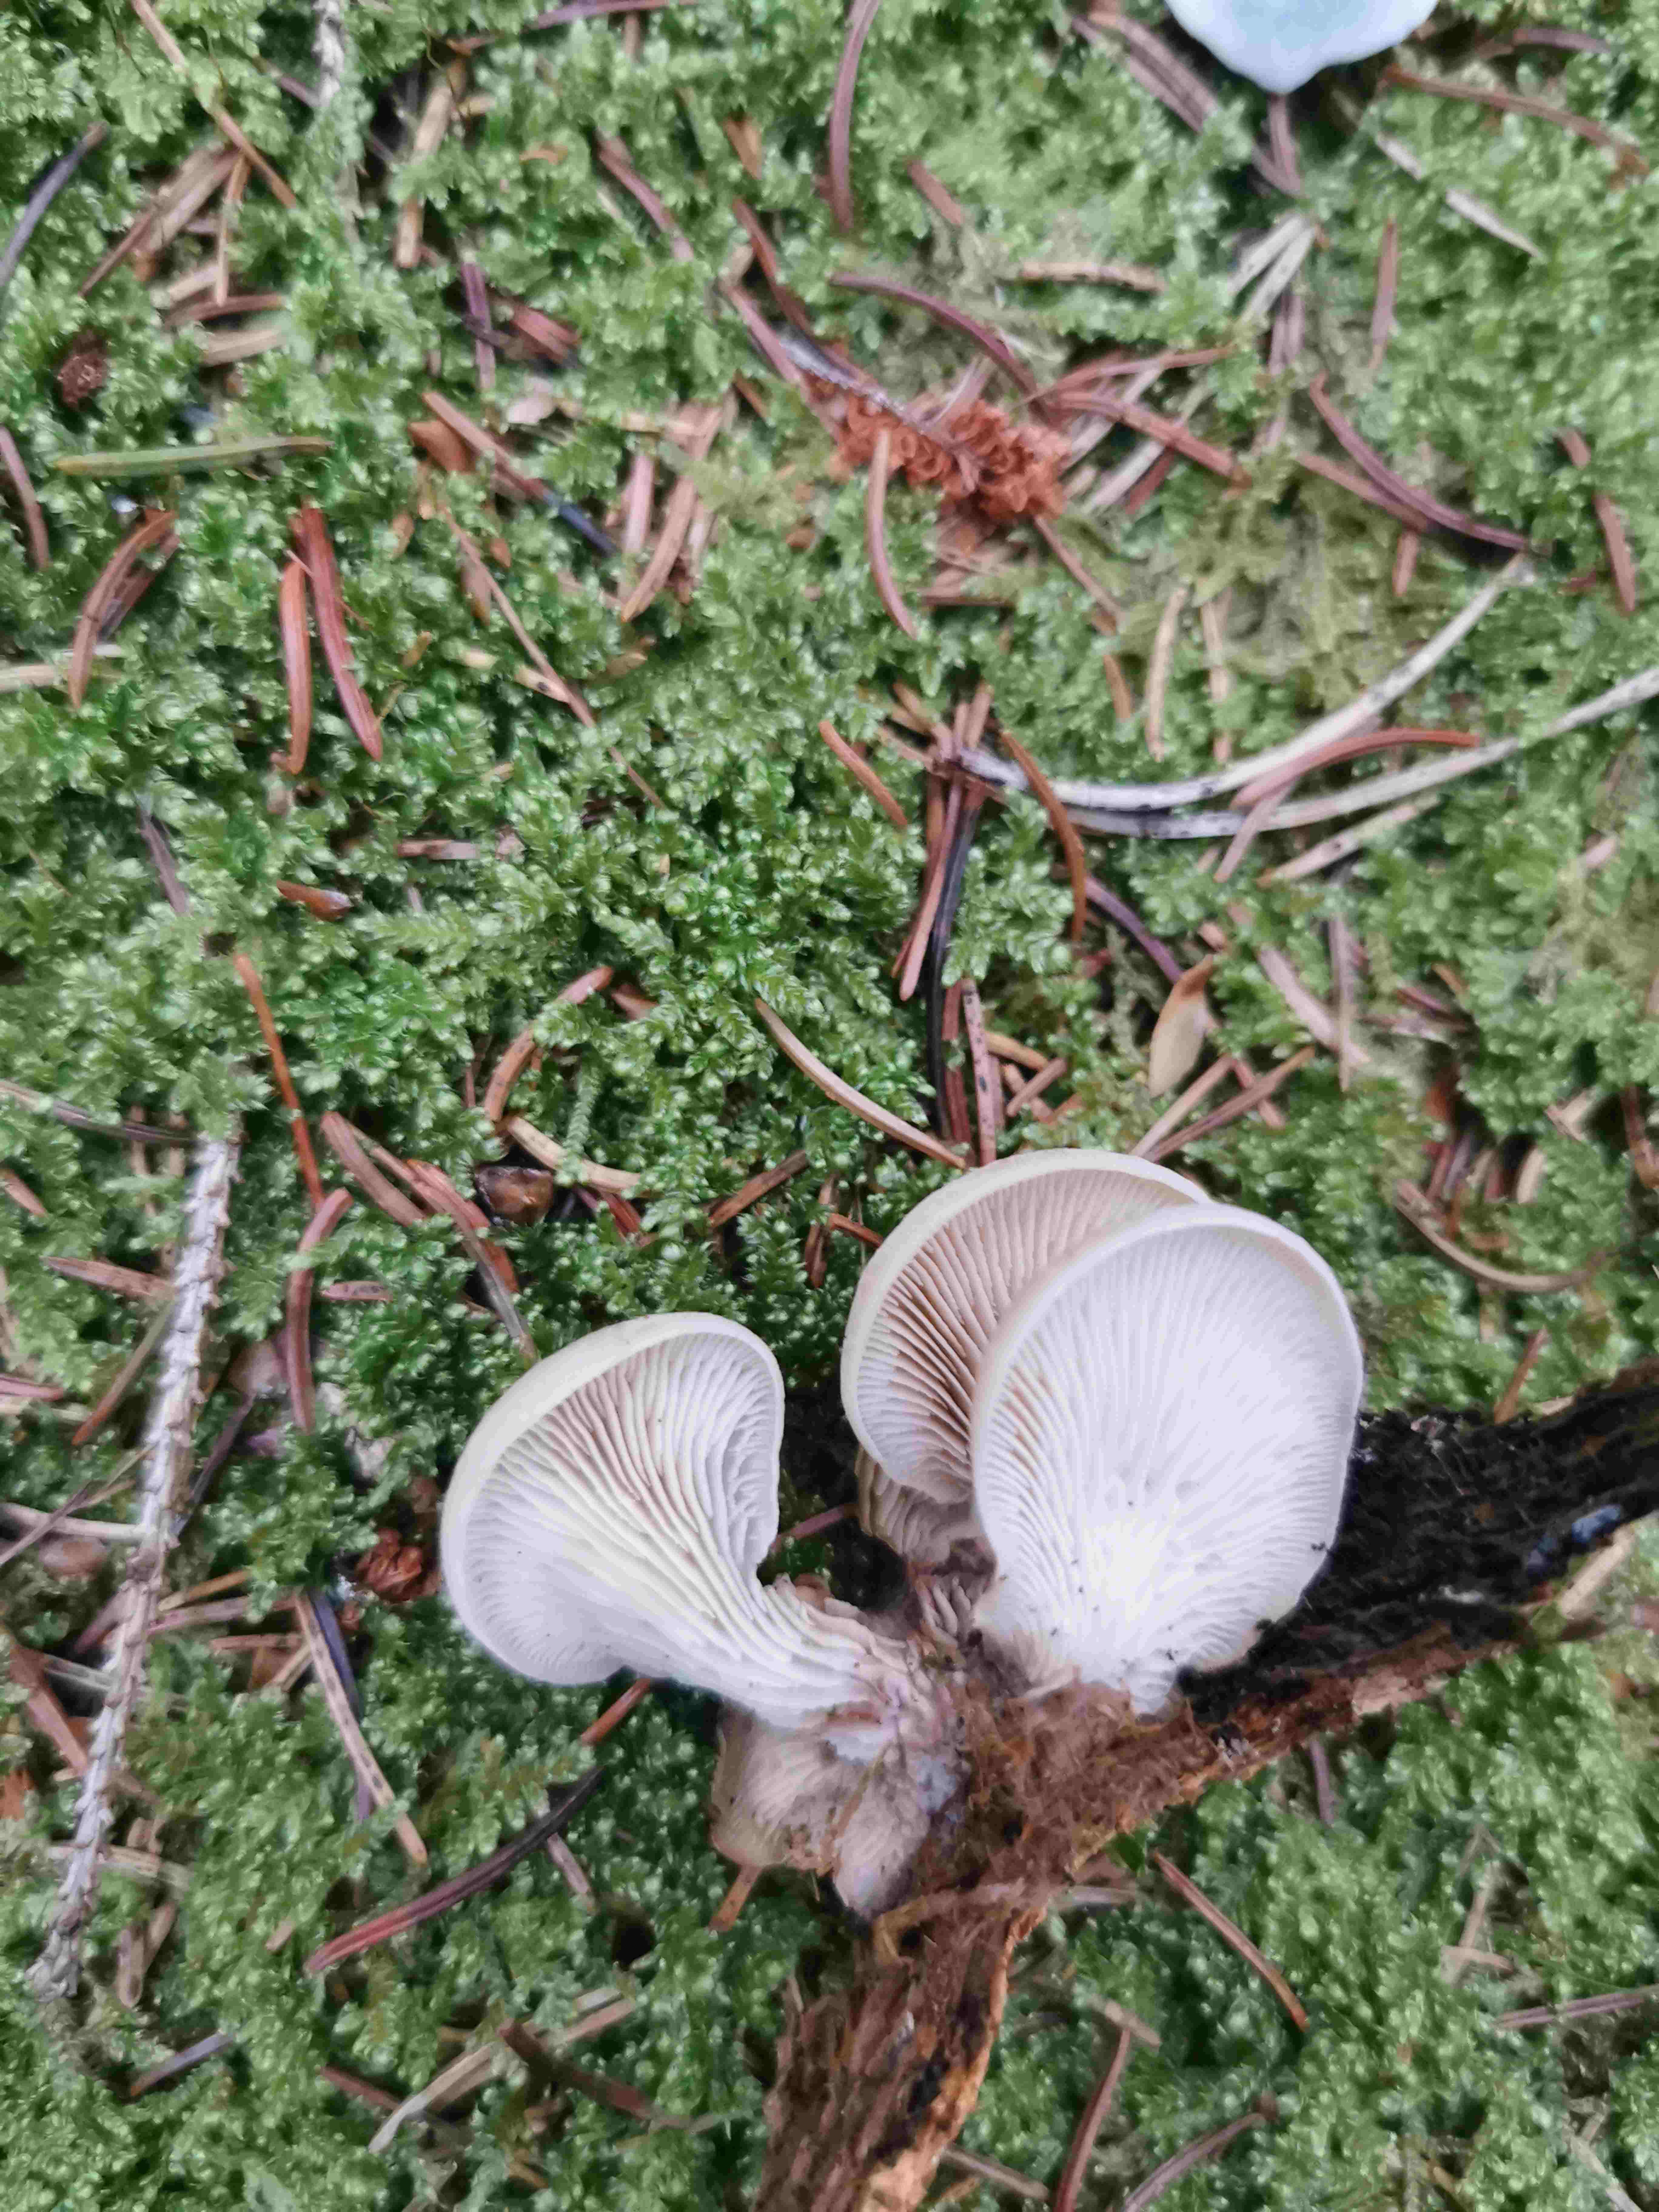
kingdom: Fungi
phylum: Basidiomycota
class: Agaricomycetes
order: Russulales
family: Auriscalpiaceae
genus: Lentinellus
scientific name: Lentinellus
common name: savbladhat
